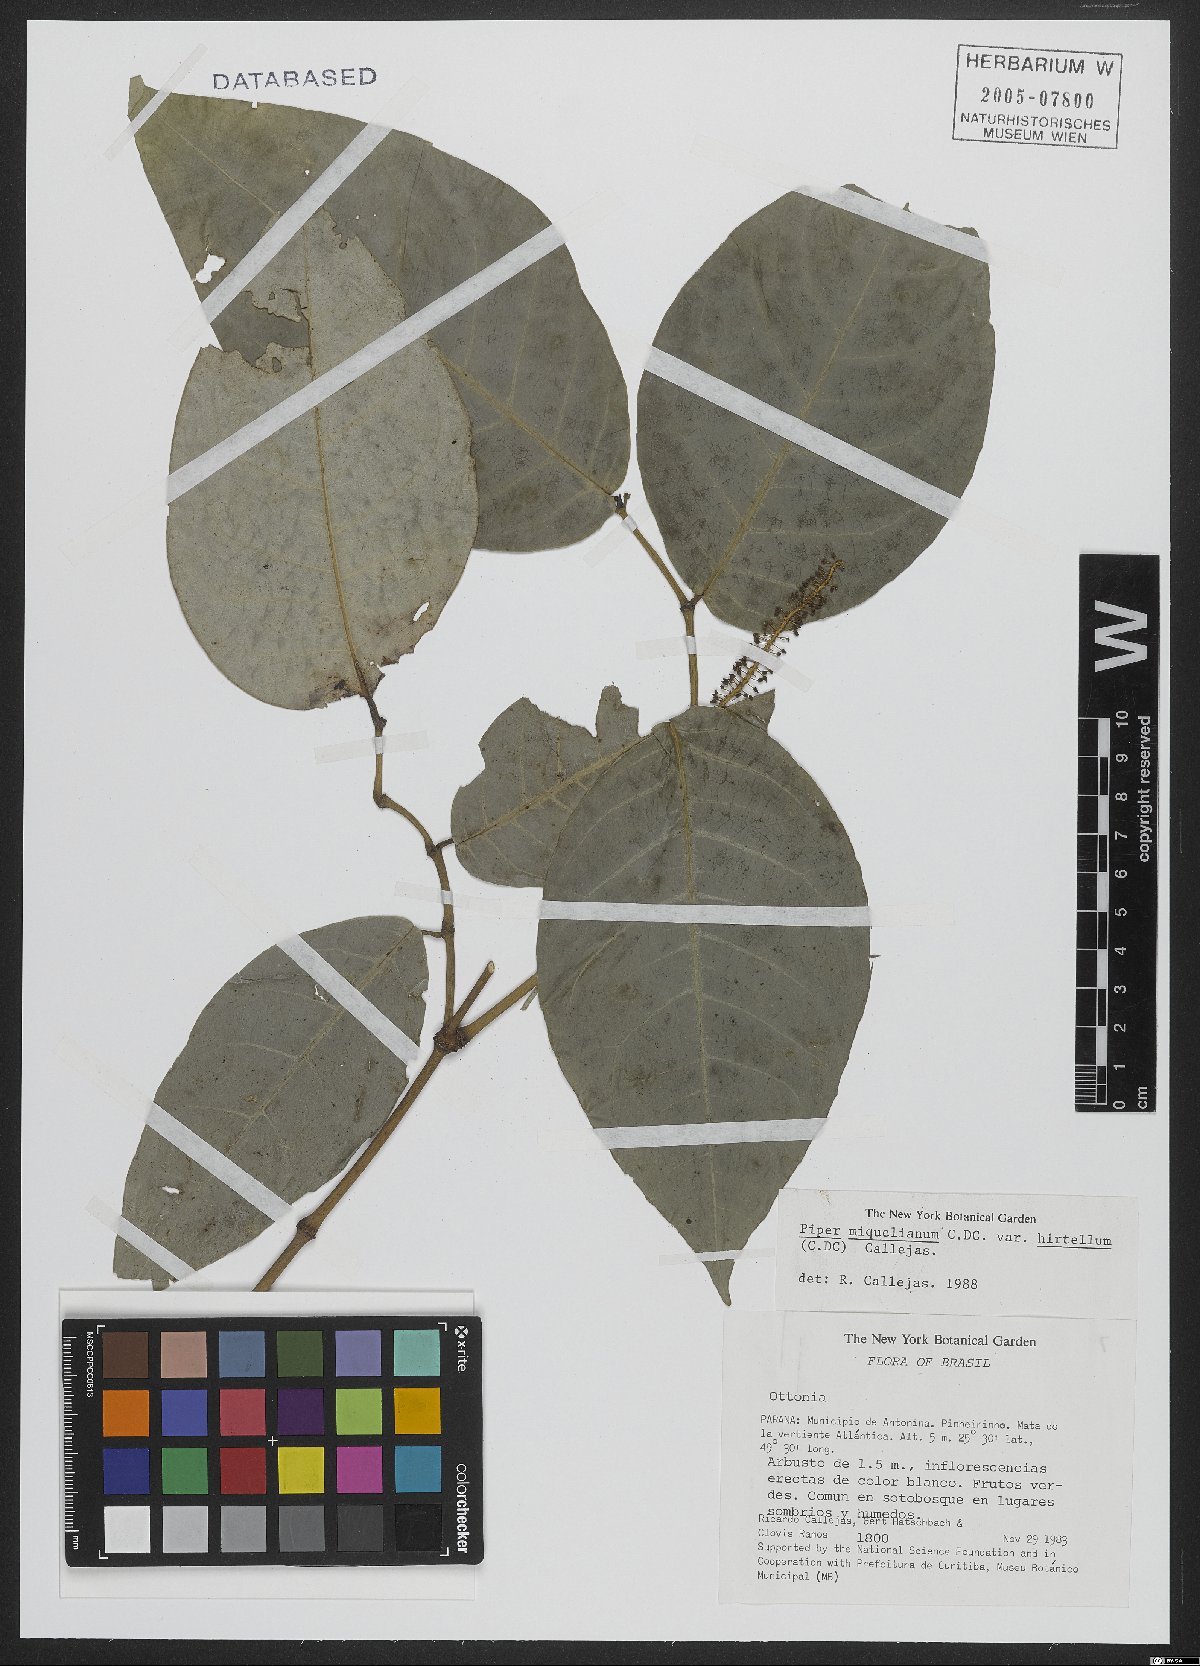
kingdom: Plantae
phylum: Tracheophyta
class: Magnoliopsida
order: Piperales
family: Piperaceae
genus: Piper
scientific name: Piper miquelianum
